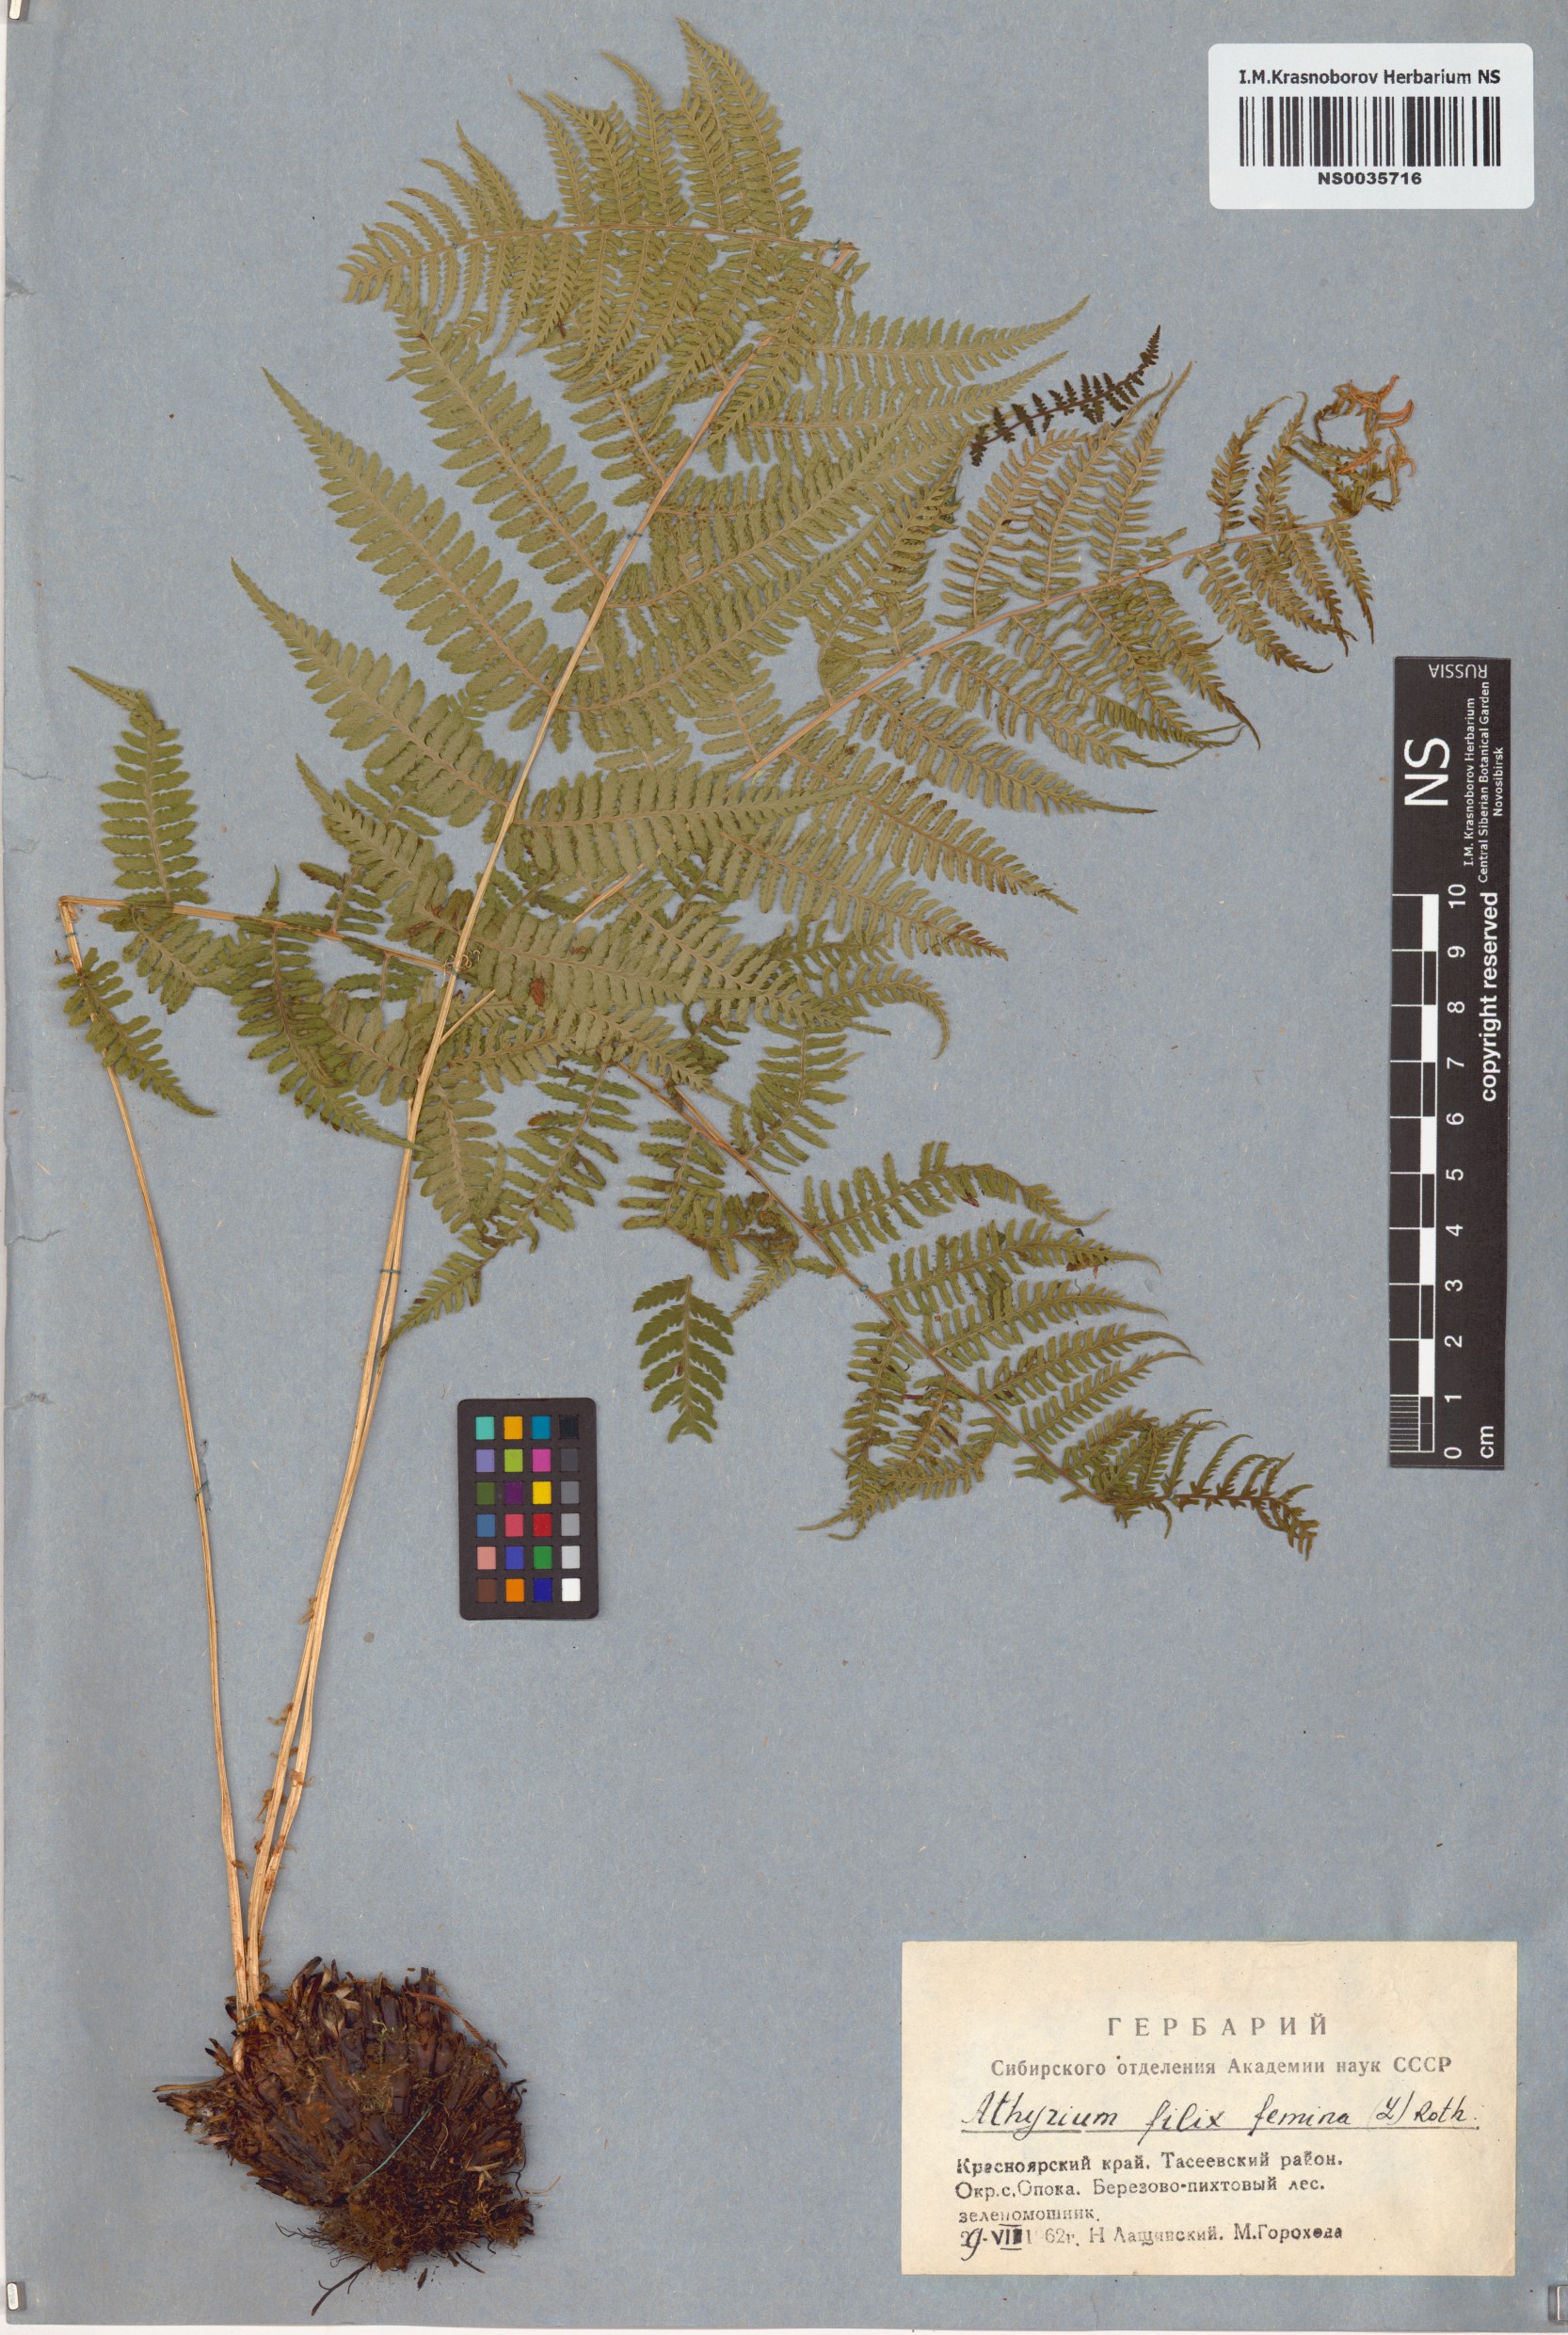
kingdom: Plantae
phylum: Tracheophyta
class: Polypodiopsida
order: Polypodiales
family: Athyriaceae
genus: Athyrium
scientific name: Athyrium filix-femina
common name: Lady fern
